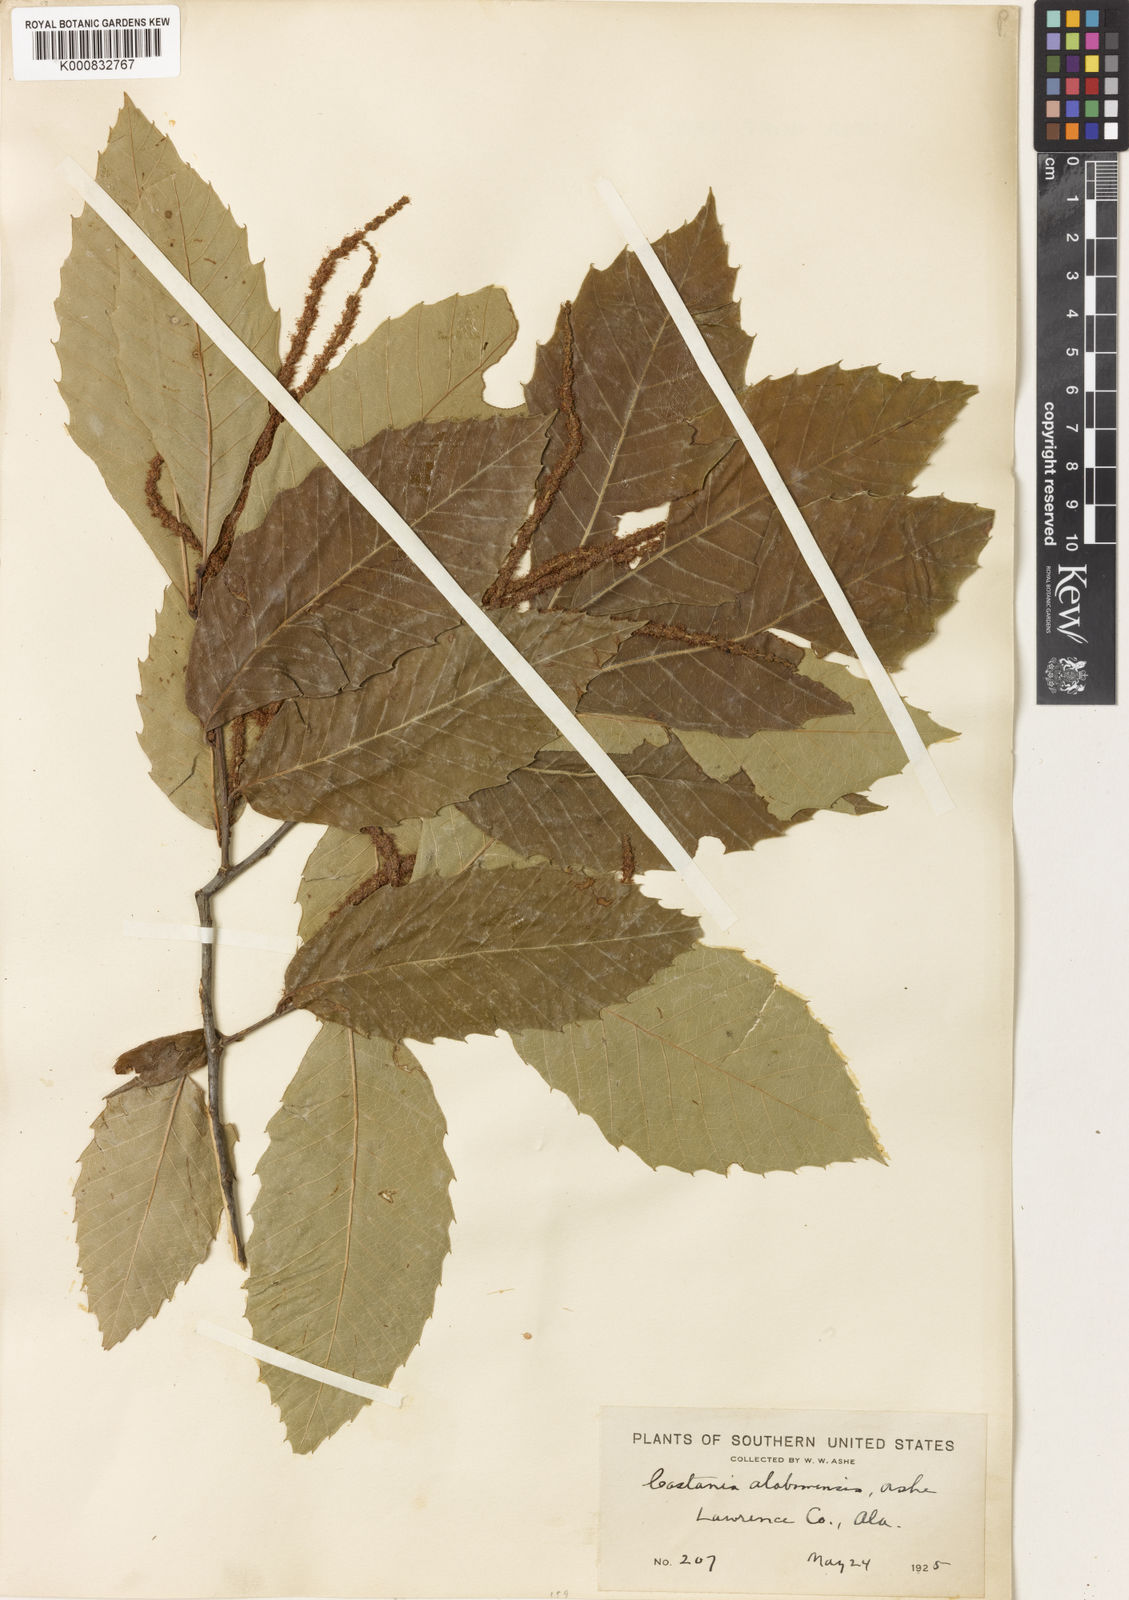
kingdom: Plantae
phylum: Tracheophyta
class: Magnoliopsida
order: Fagales
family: Fagaceae
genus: Castanea
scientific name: Castanea ozarkensis
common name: Ozark chinkapin
